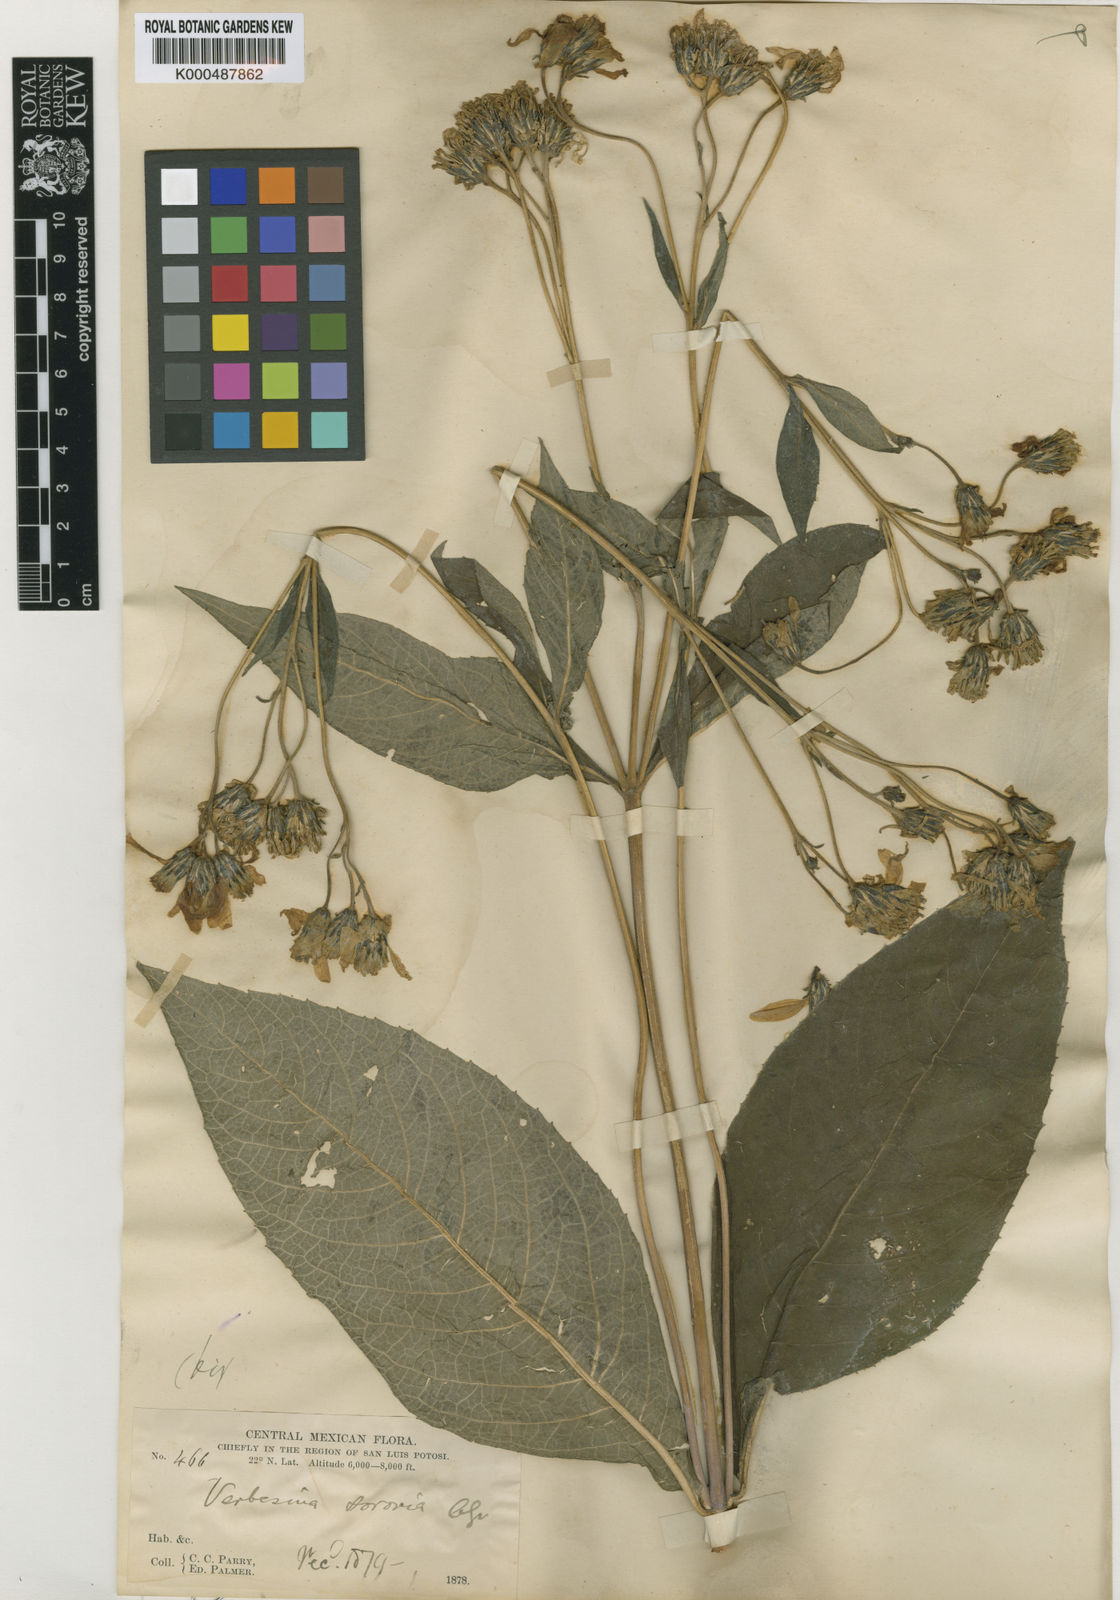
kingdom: Plantae
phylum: Tracheophyta
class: Magnoliopsida
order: Asterales
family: Asteraceae
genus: Verbesina
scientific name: Verbesina sororia
